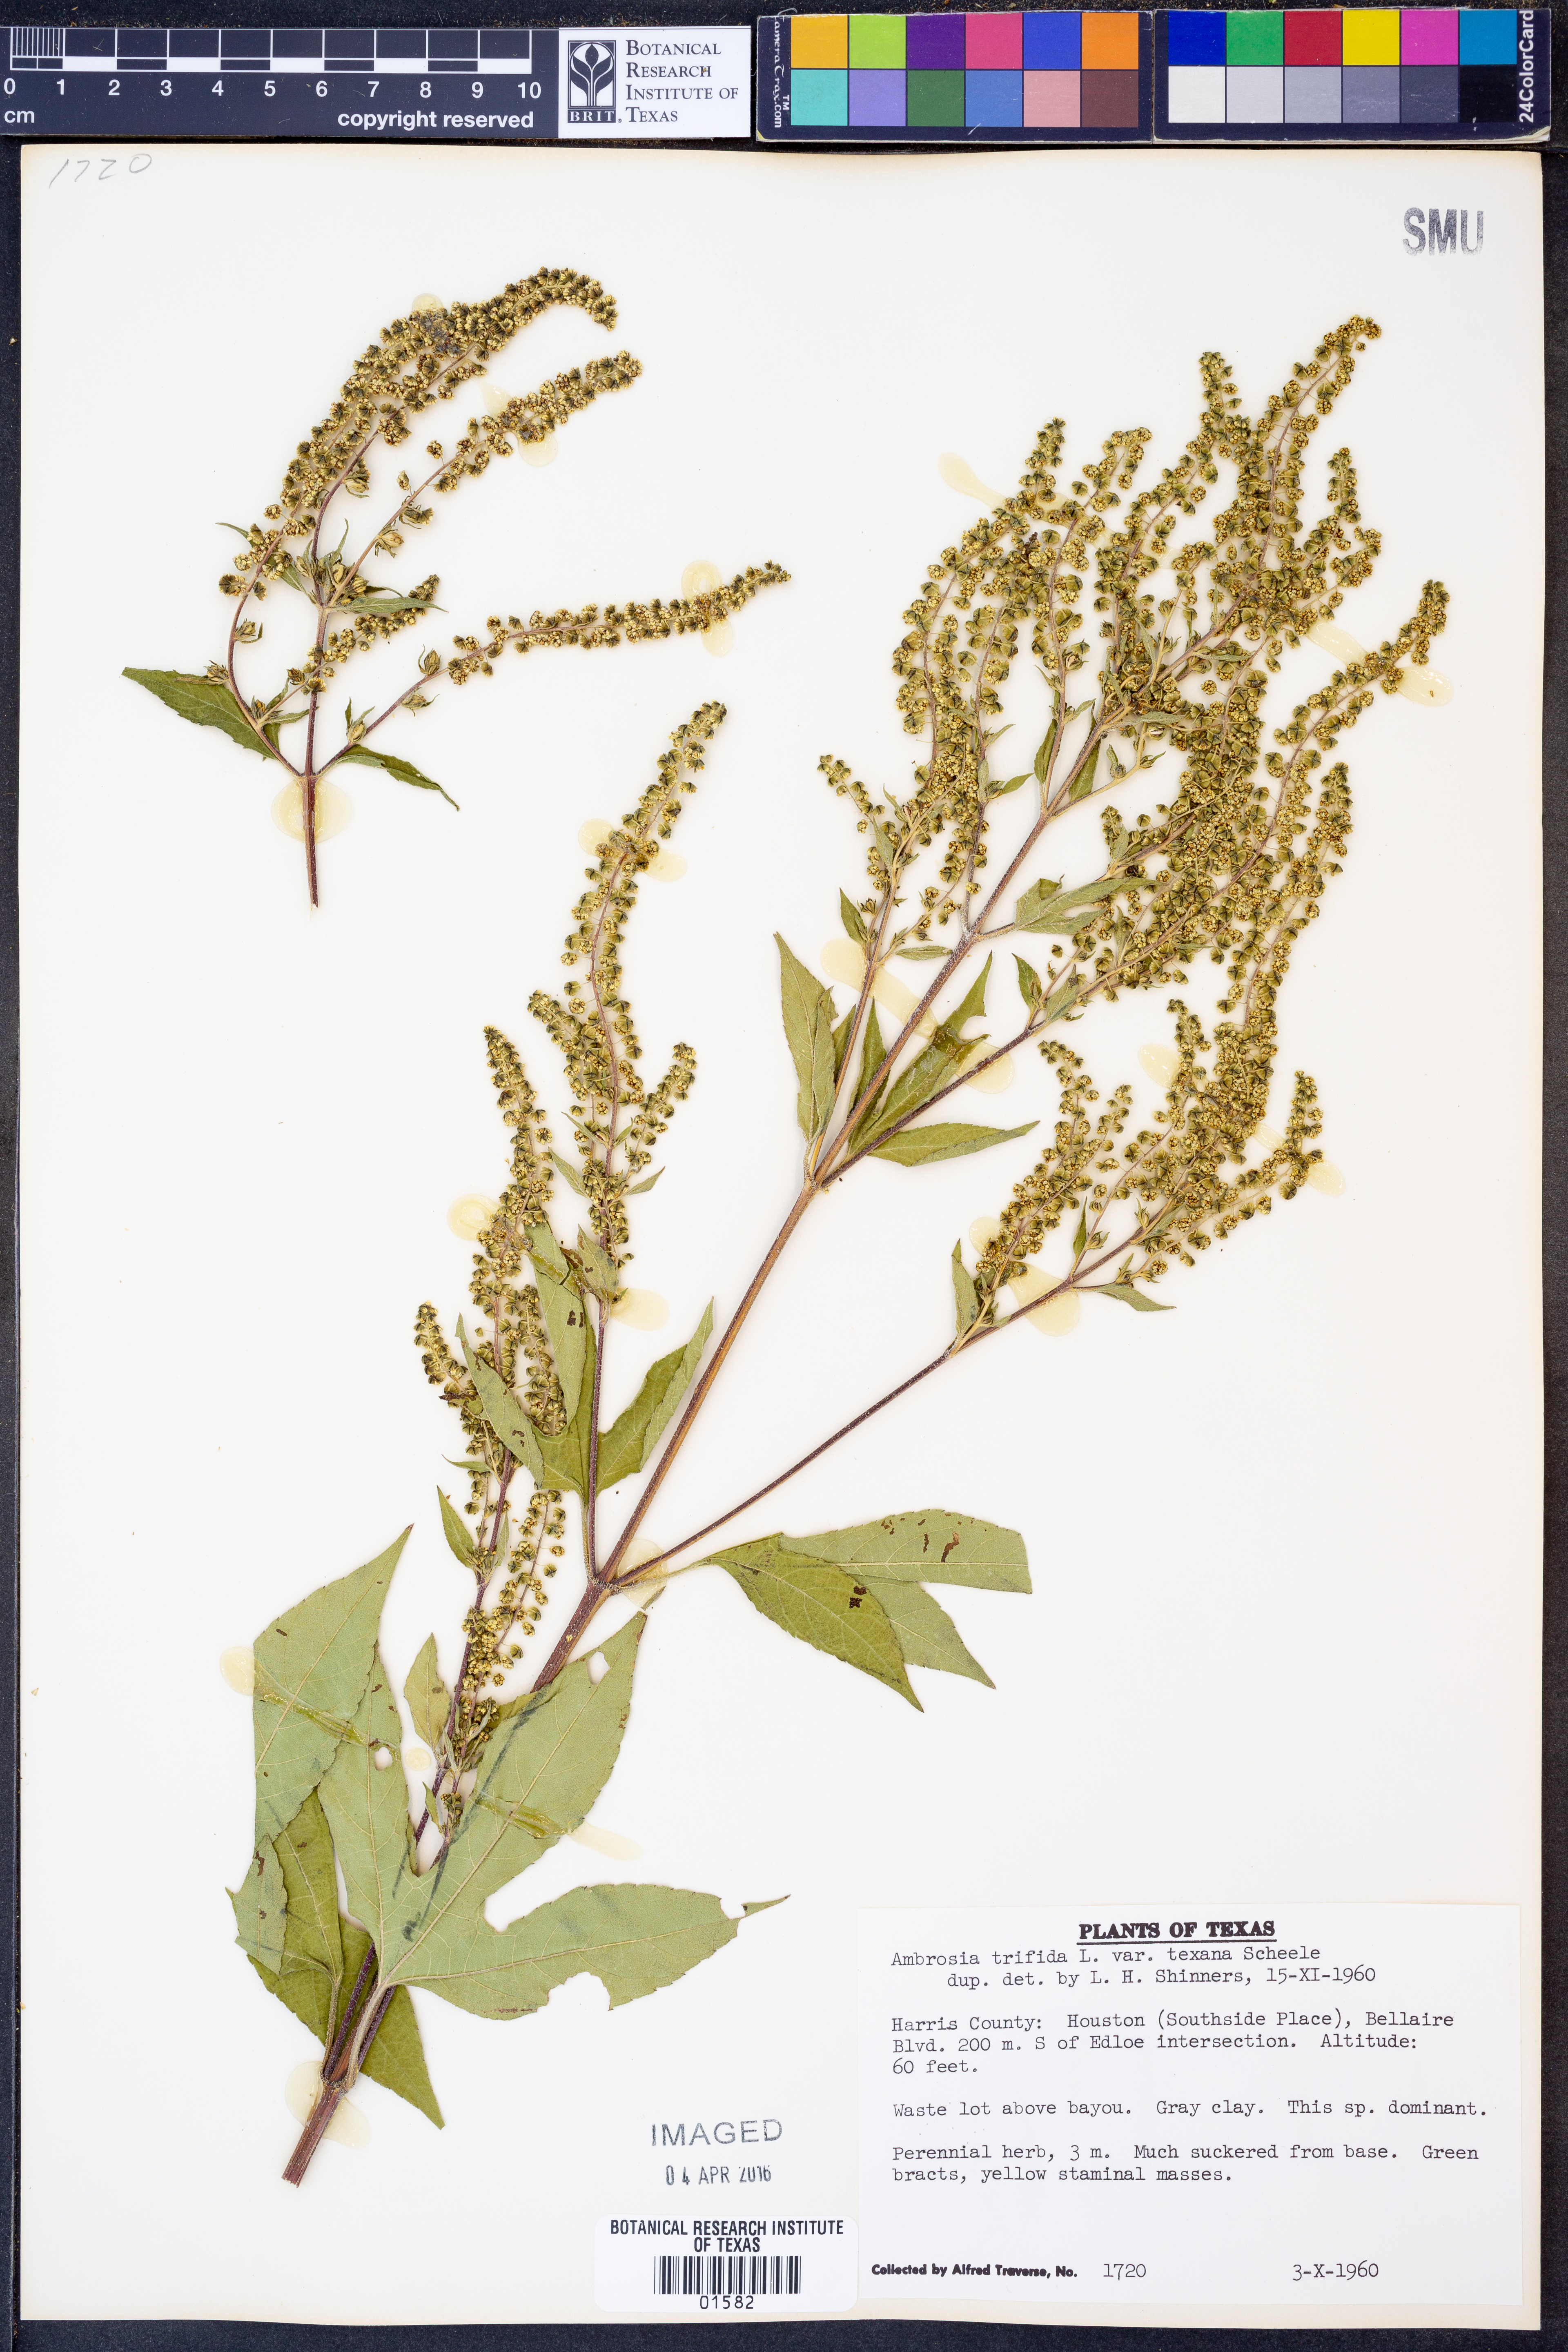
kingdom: Plantae
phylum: Tracheophyta
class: Magnoliopsida
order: Asterales
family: Asteraceae
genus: Ambrosia
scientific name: Ambrosia trifida
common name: Giant ragweed
